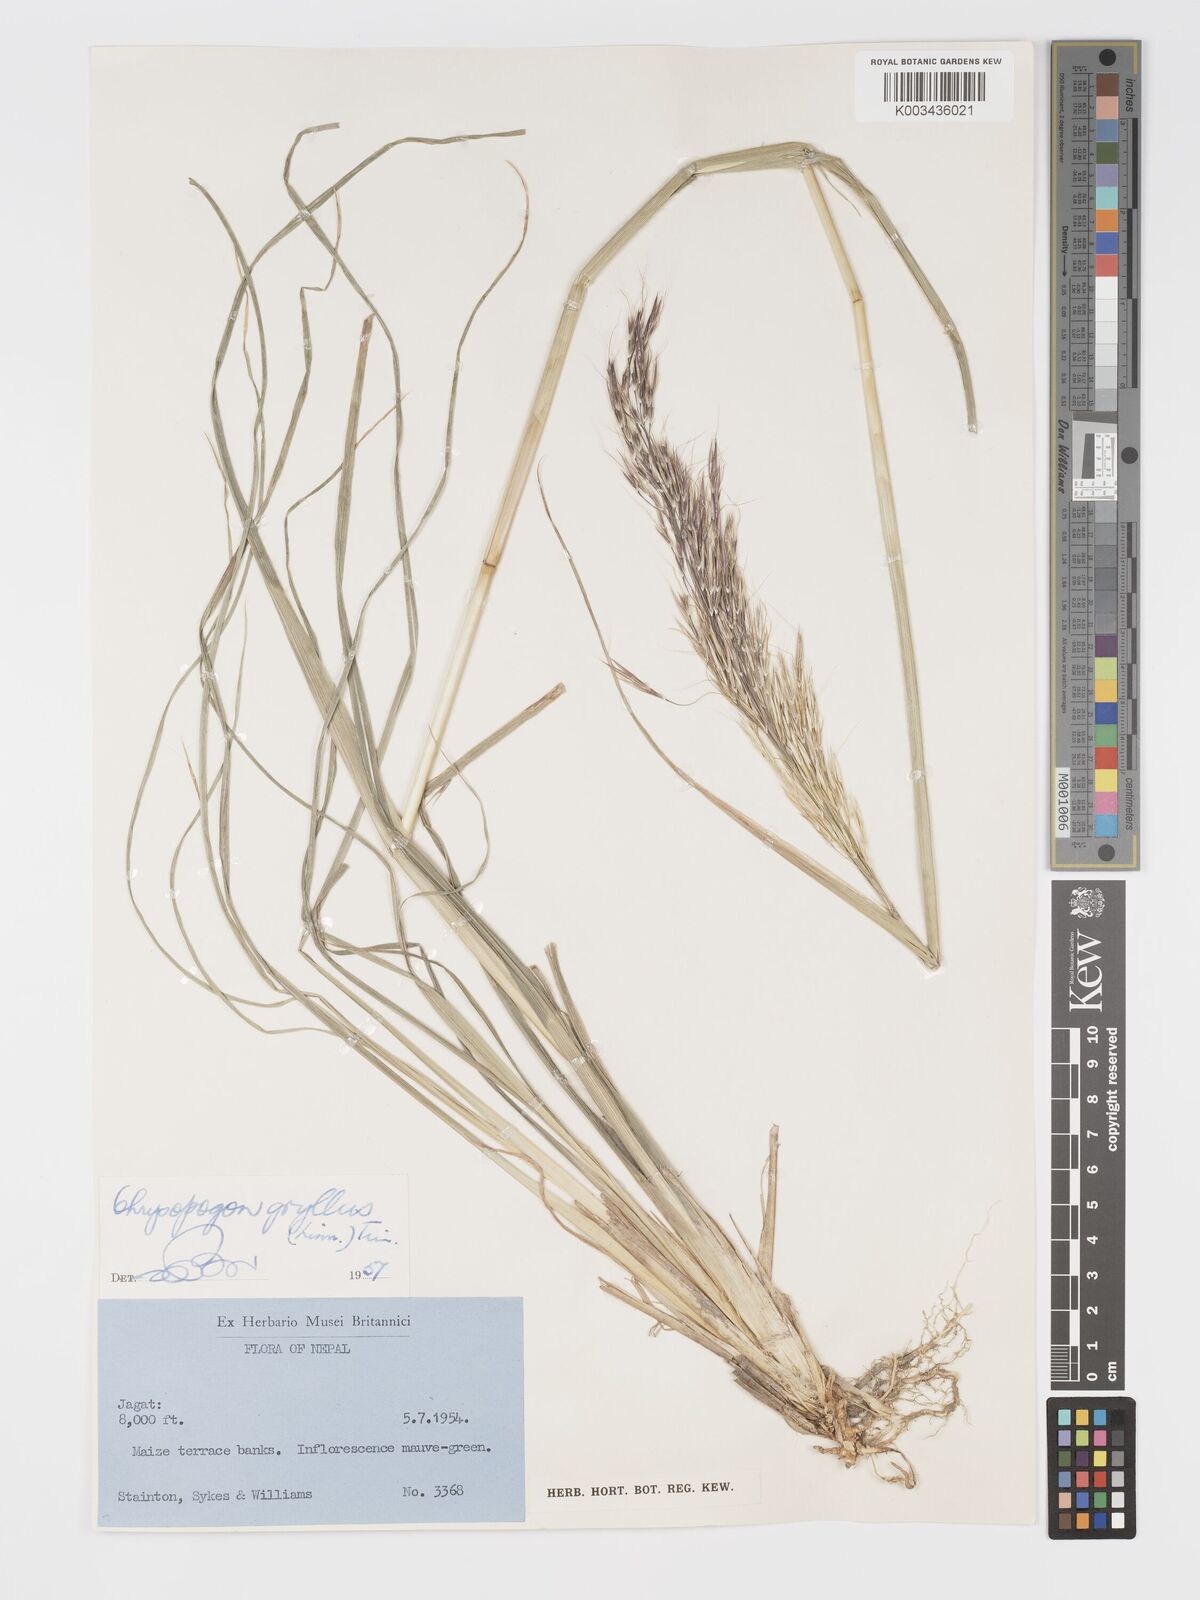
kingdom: Plantae
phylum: Tracheophyta
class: Liliopsida
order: Poales
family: Poaceae
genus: Chrysopogon
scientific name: Chrysopogon gryllus
